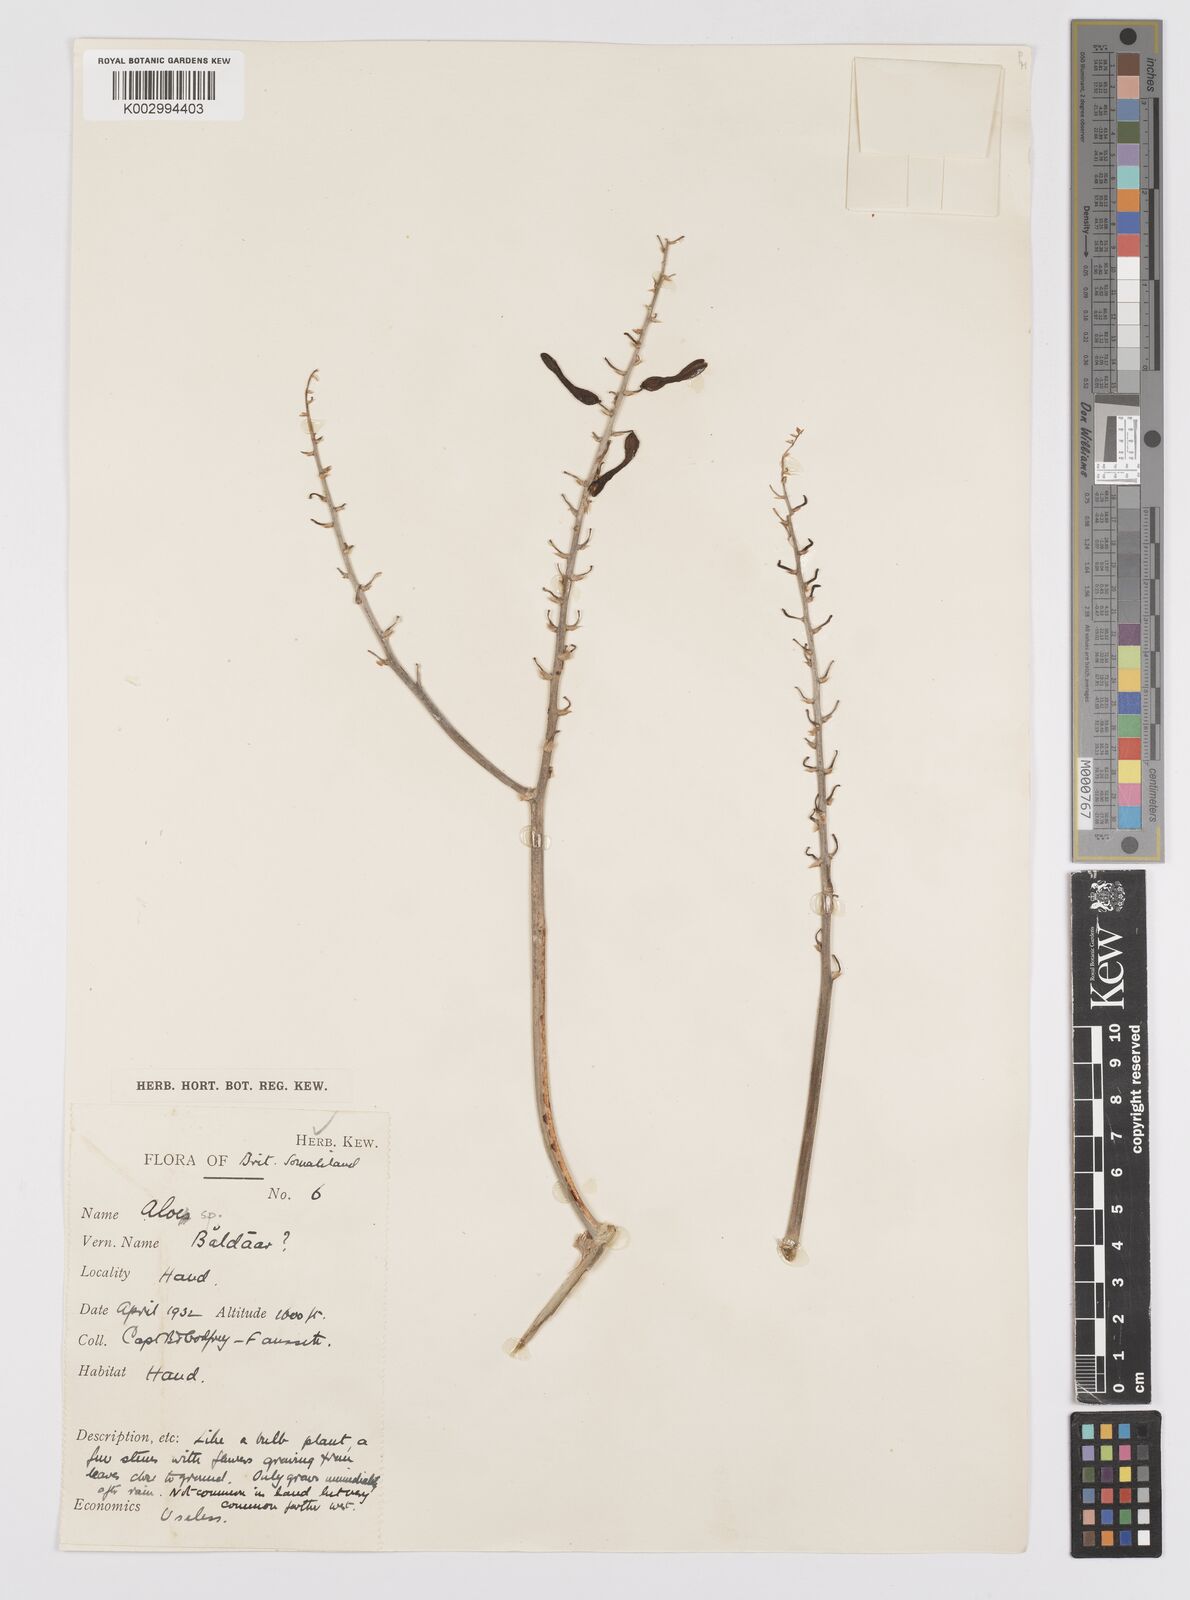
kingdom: Plantae
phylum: Tracheophyta
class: Liliopsida
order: Asparagales
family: Asphodelaceae
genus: Aloe
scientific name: Aloe
